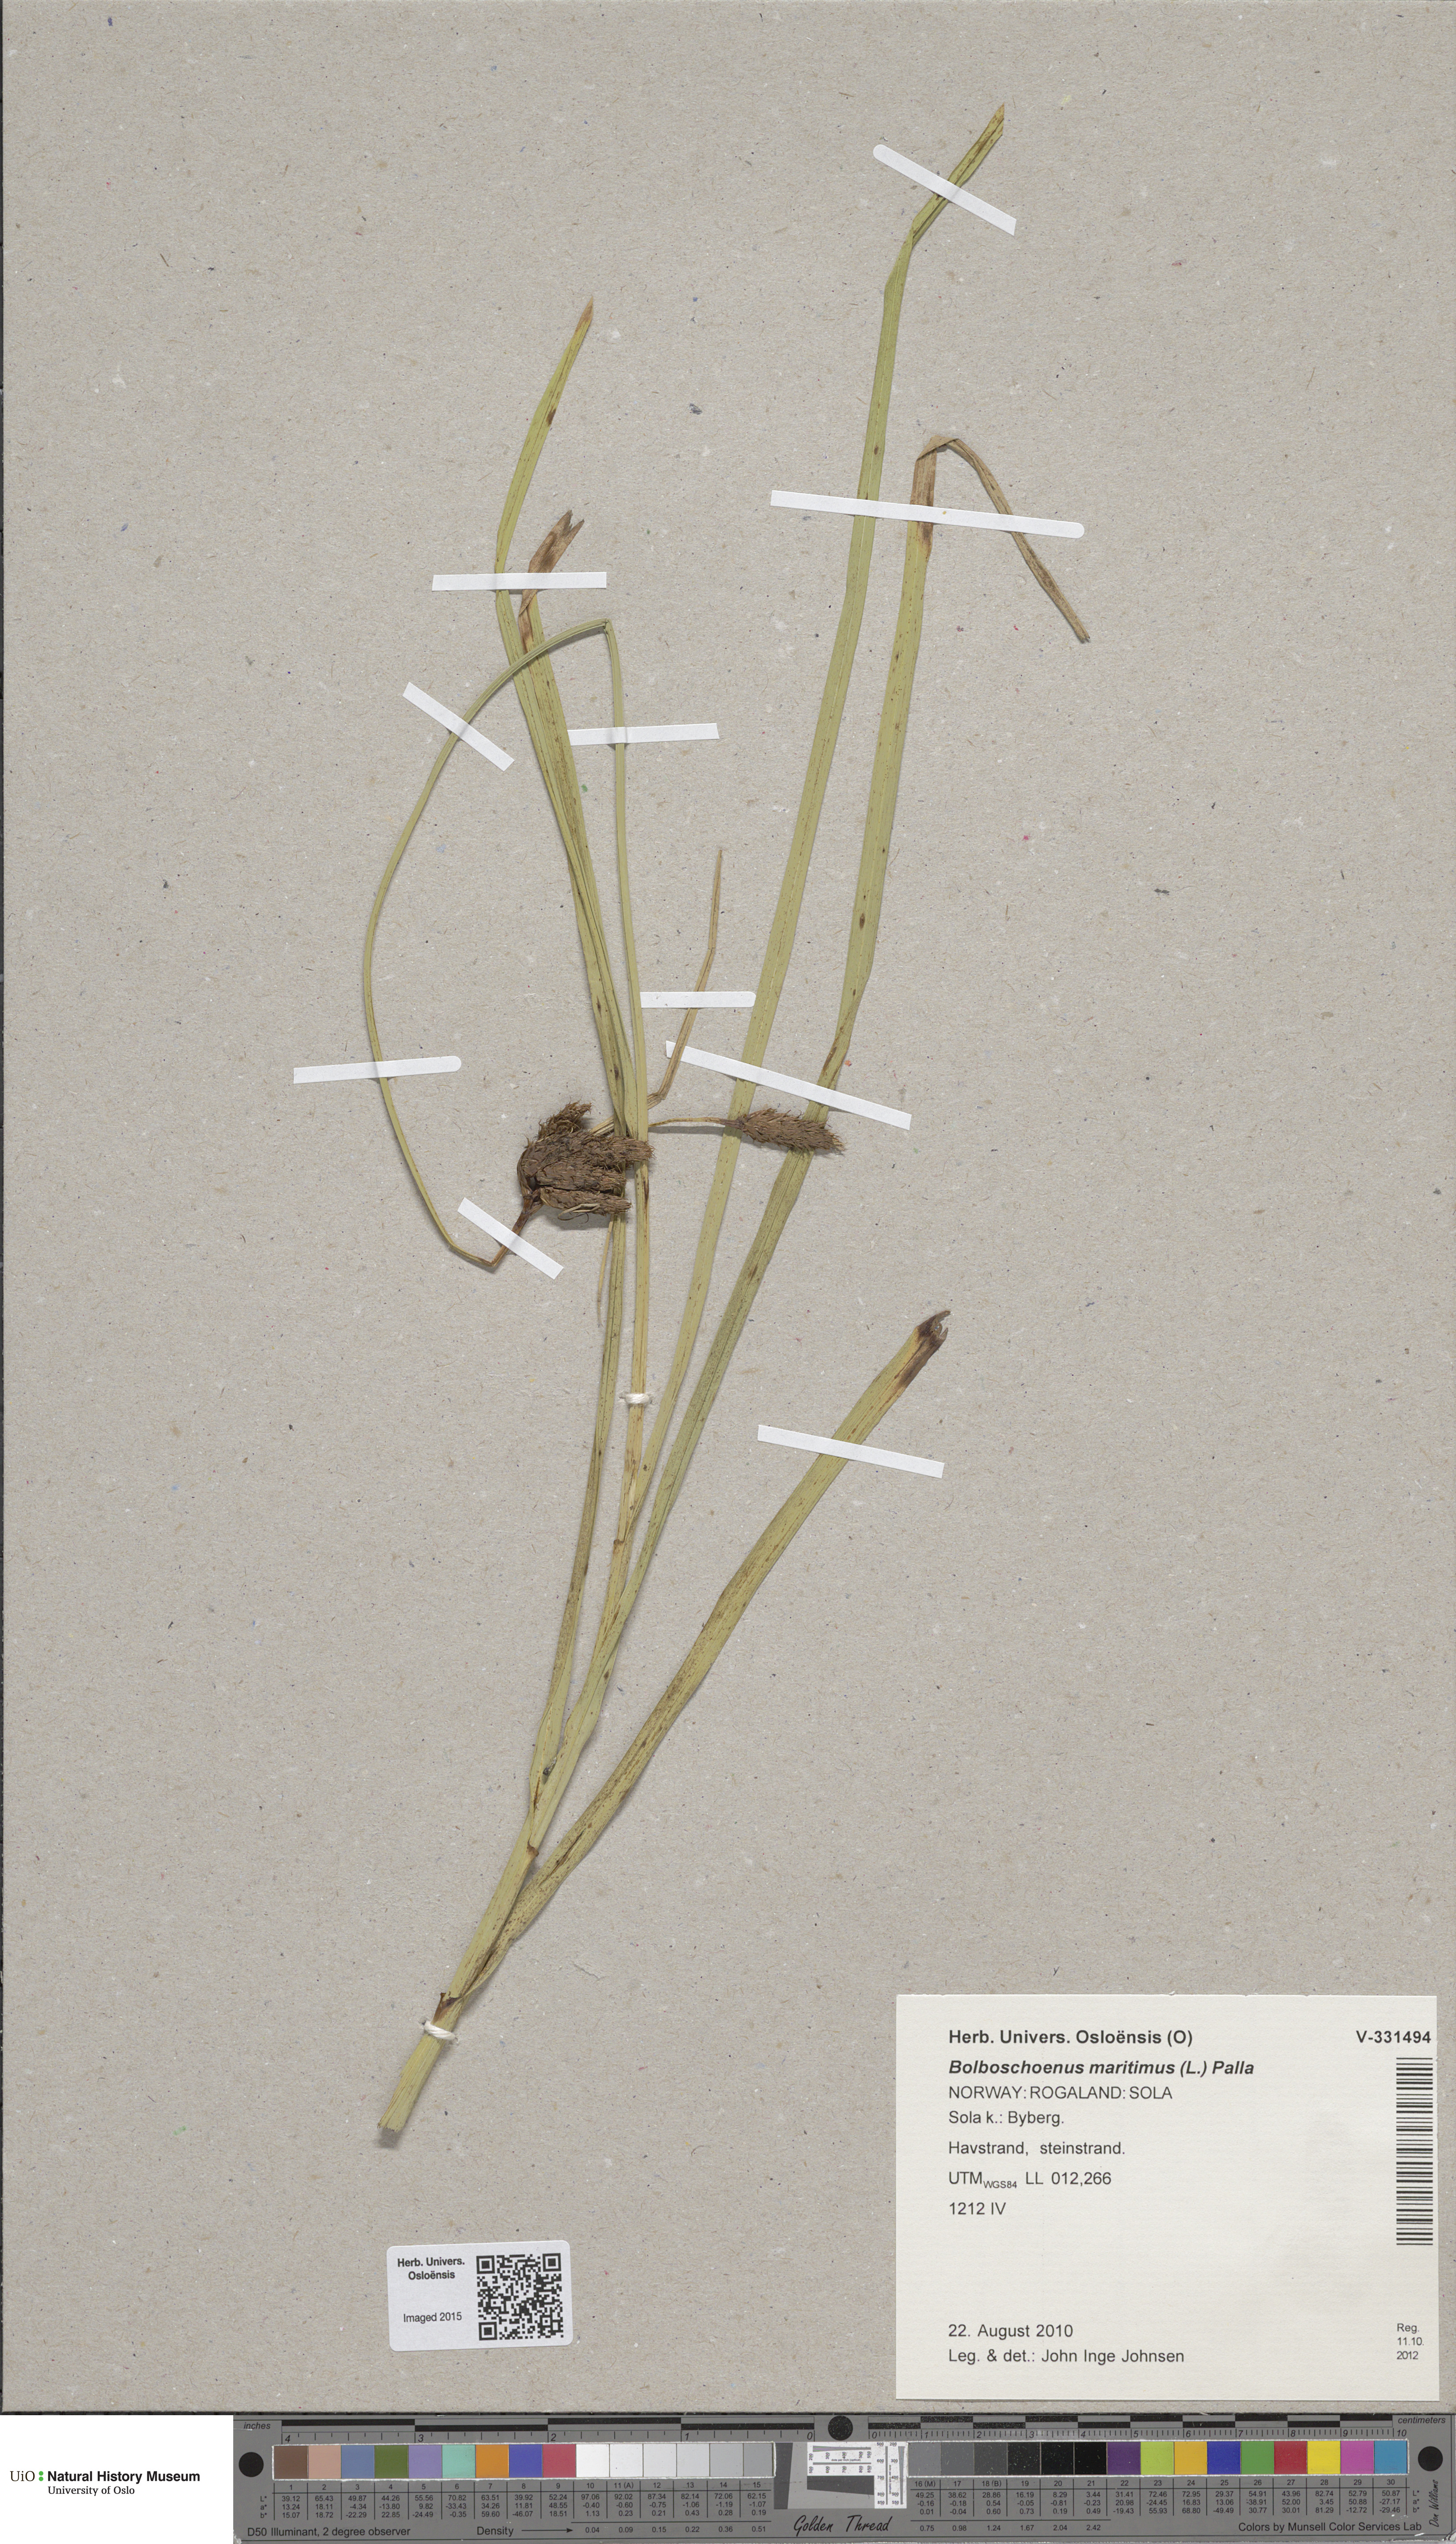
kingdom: Plantae
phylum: Tracheophyta
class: Liliopsida
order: Poales
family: Cyperaceae
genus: Bolboschoenus
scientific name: Bolboschoenus maritimus
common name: Sea club-rush
